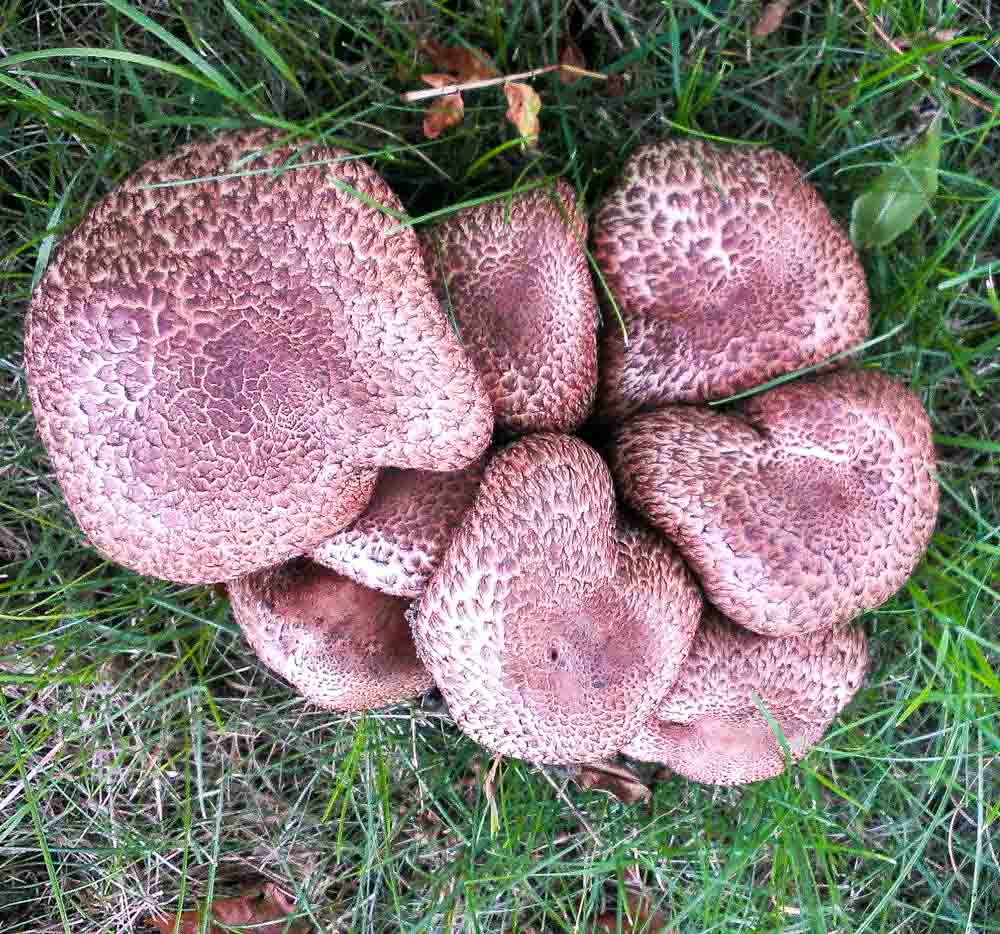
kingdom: Fungi
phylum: Basidiomycota
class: Agaricomycetes
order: Agaricales
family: Agaricaceae
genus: Agaricus
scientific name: Agaricus bohusii
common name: krumskællet champignon
